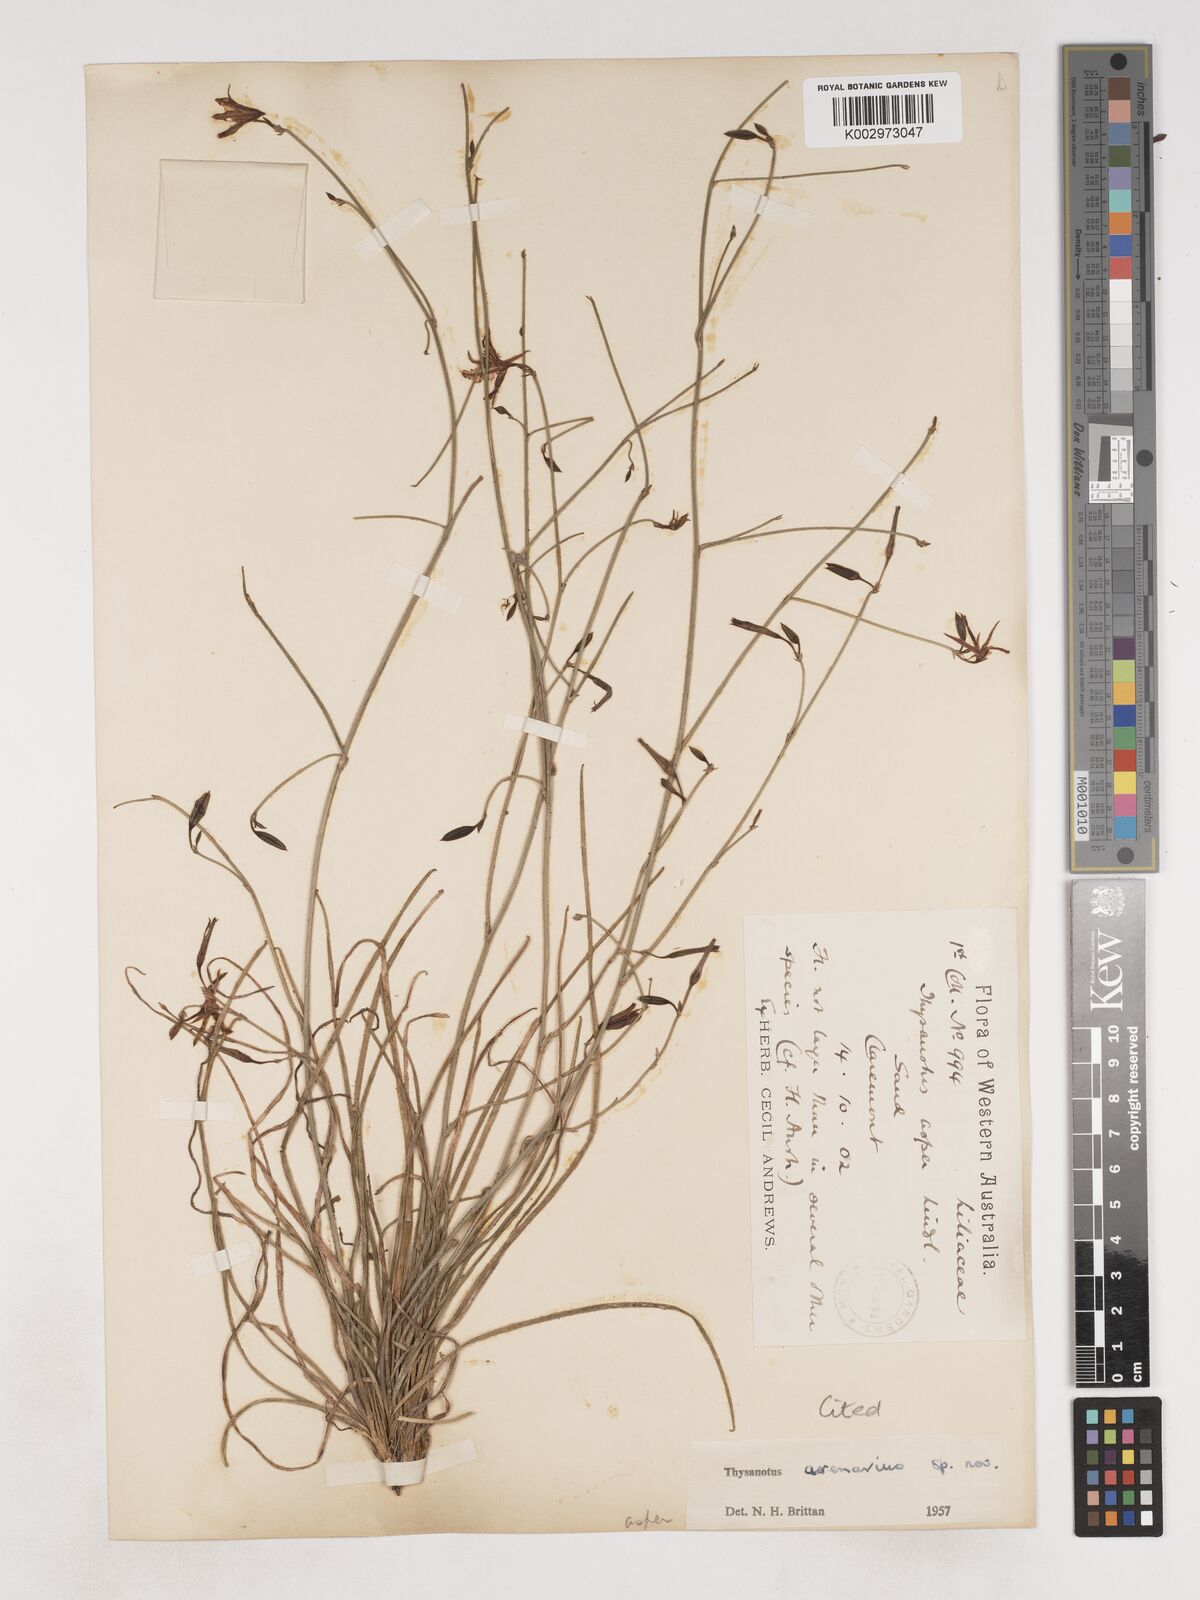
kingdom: Plantae
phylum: Tracheophyta
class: Liliopsida
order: Asparagales
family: Asparagaceae
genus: Thysanotus
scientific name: Thysanotus arenarius
